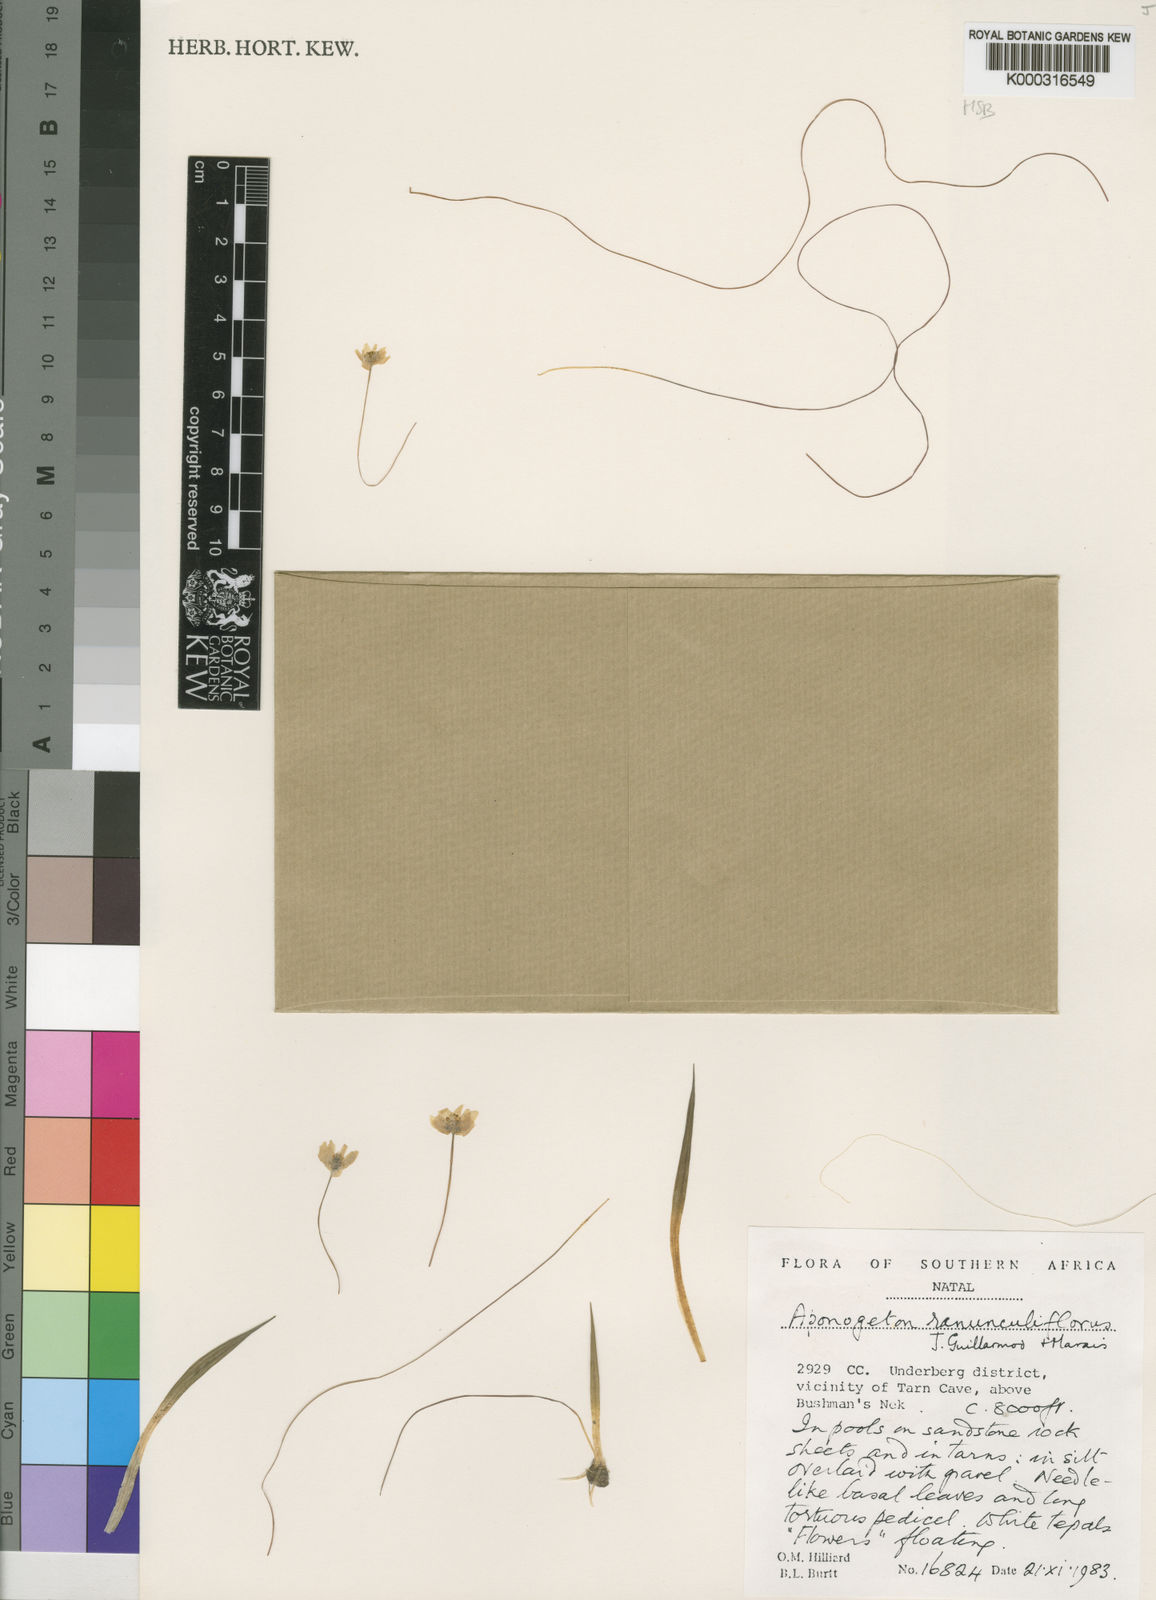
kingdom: Plantae
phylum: Tracheophyta
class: Liliopsida
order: Alismatales
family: Aponogetonaceae
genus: Aponogeton
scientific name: Aponogeton ranunculiflorus
